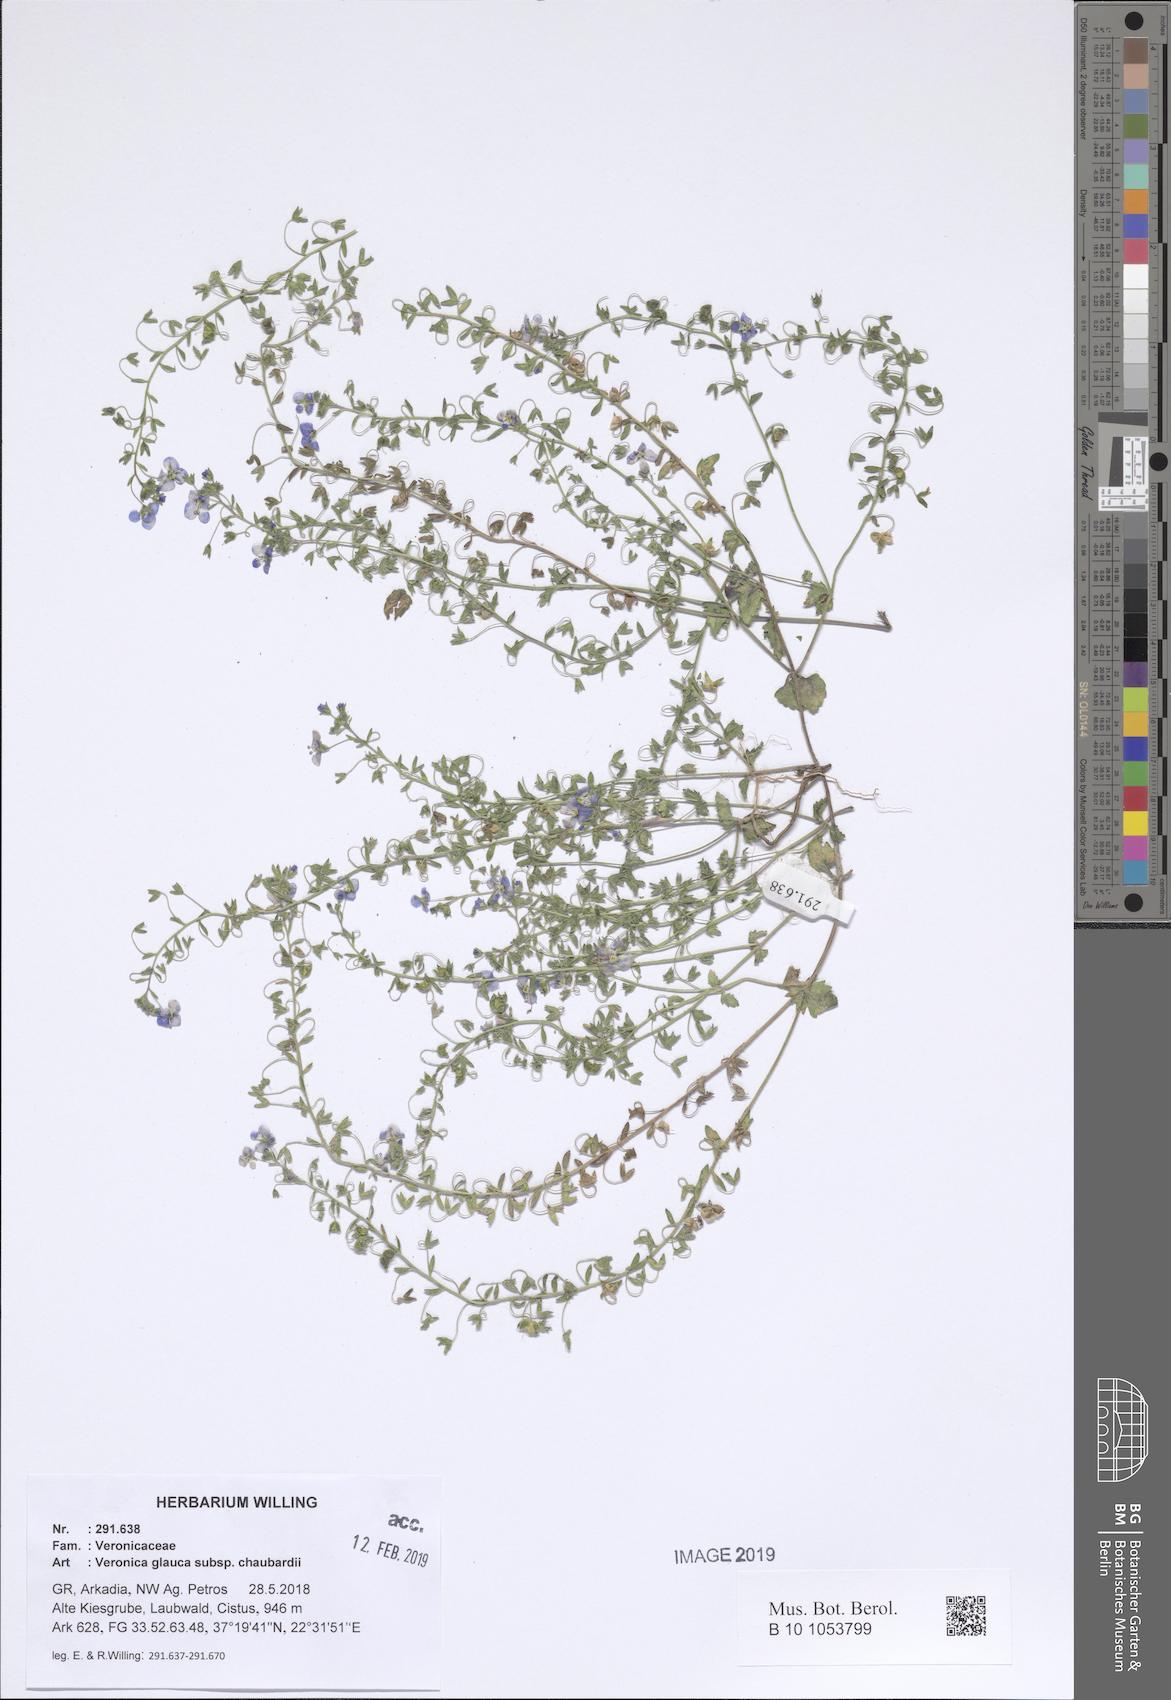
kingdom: Plantae
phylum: Tracheophyta
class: Magnoliopsida
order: Lamiales
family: Plantaginaceae
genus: Veronica
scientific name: Veronica glauca
